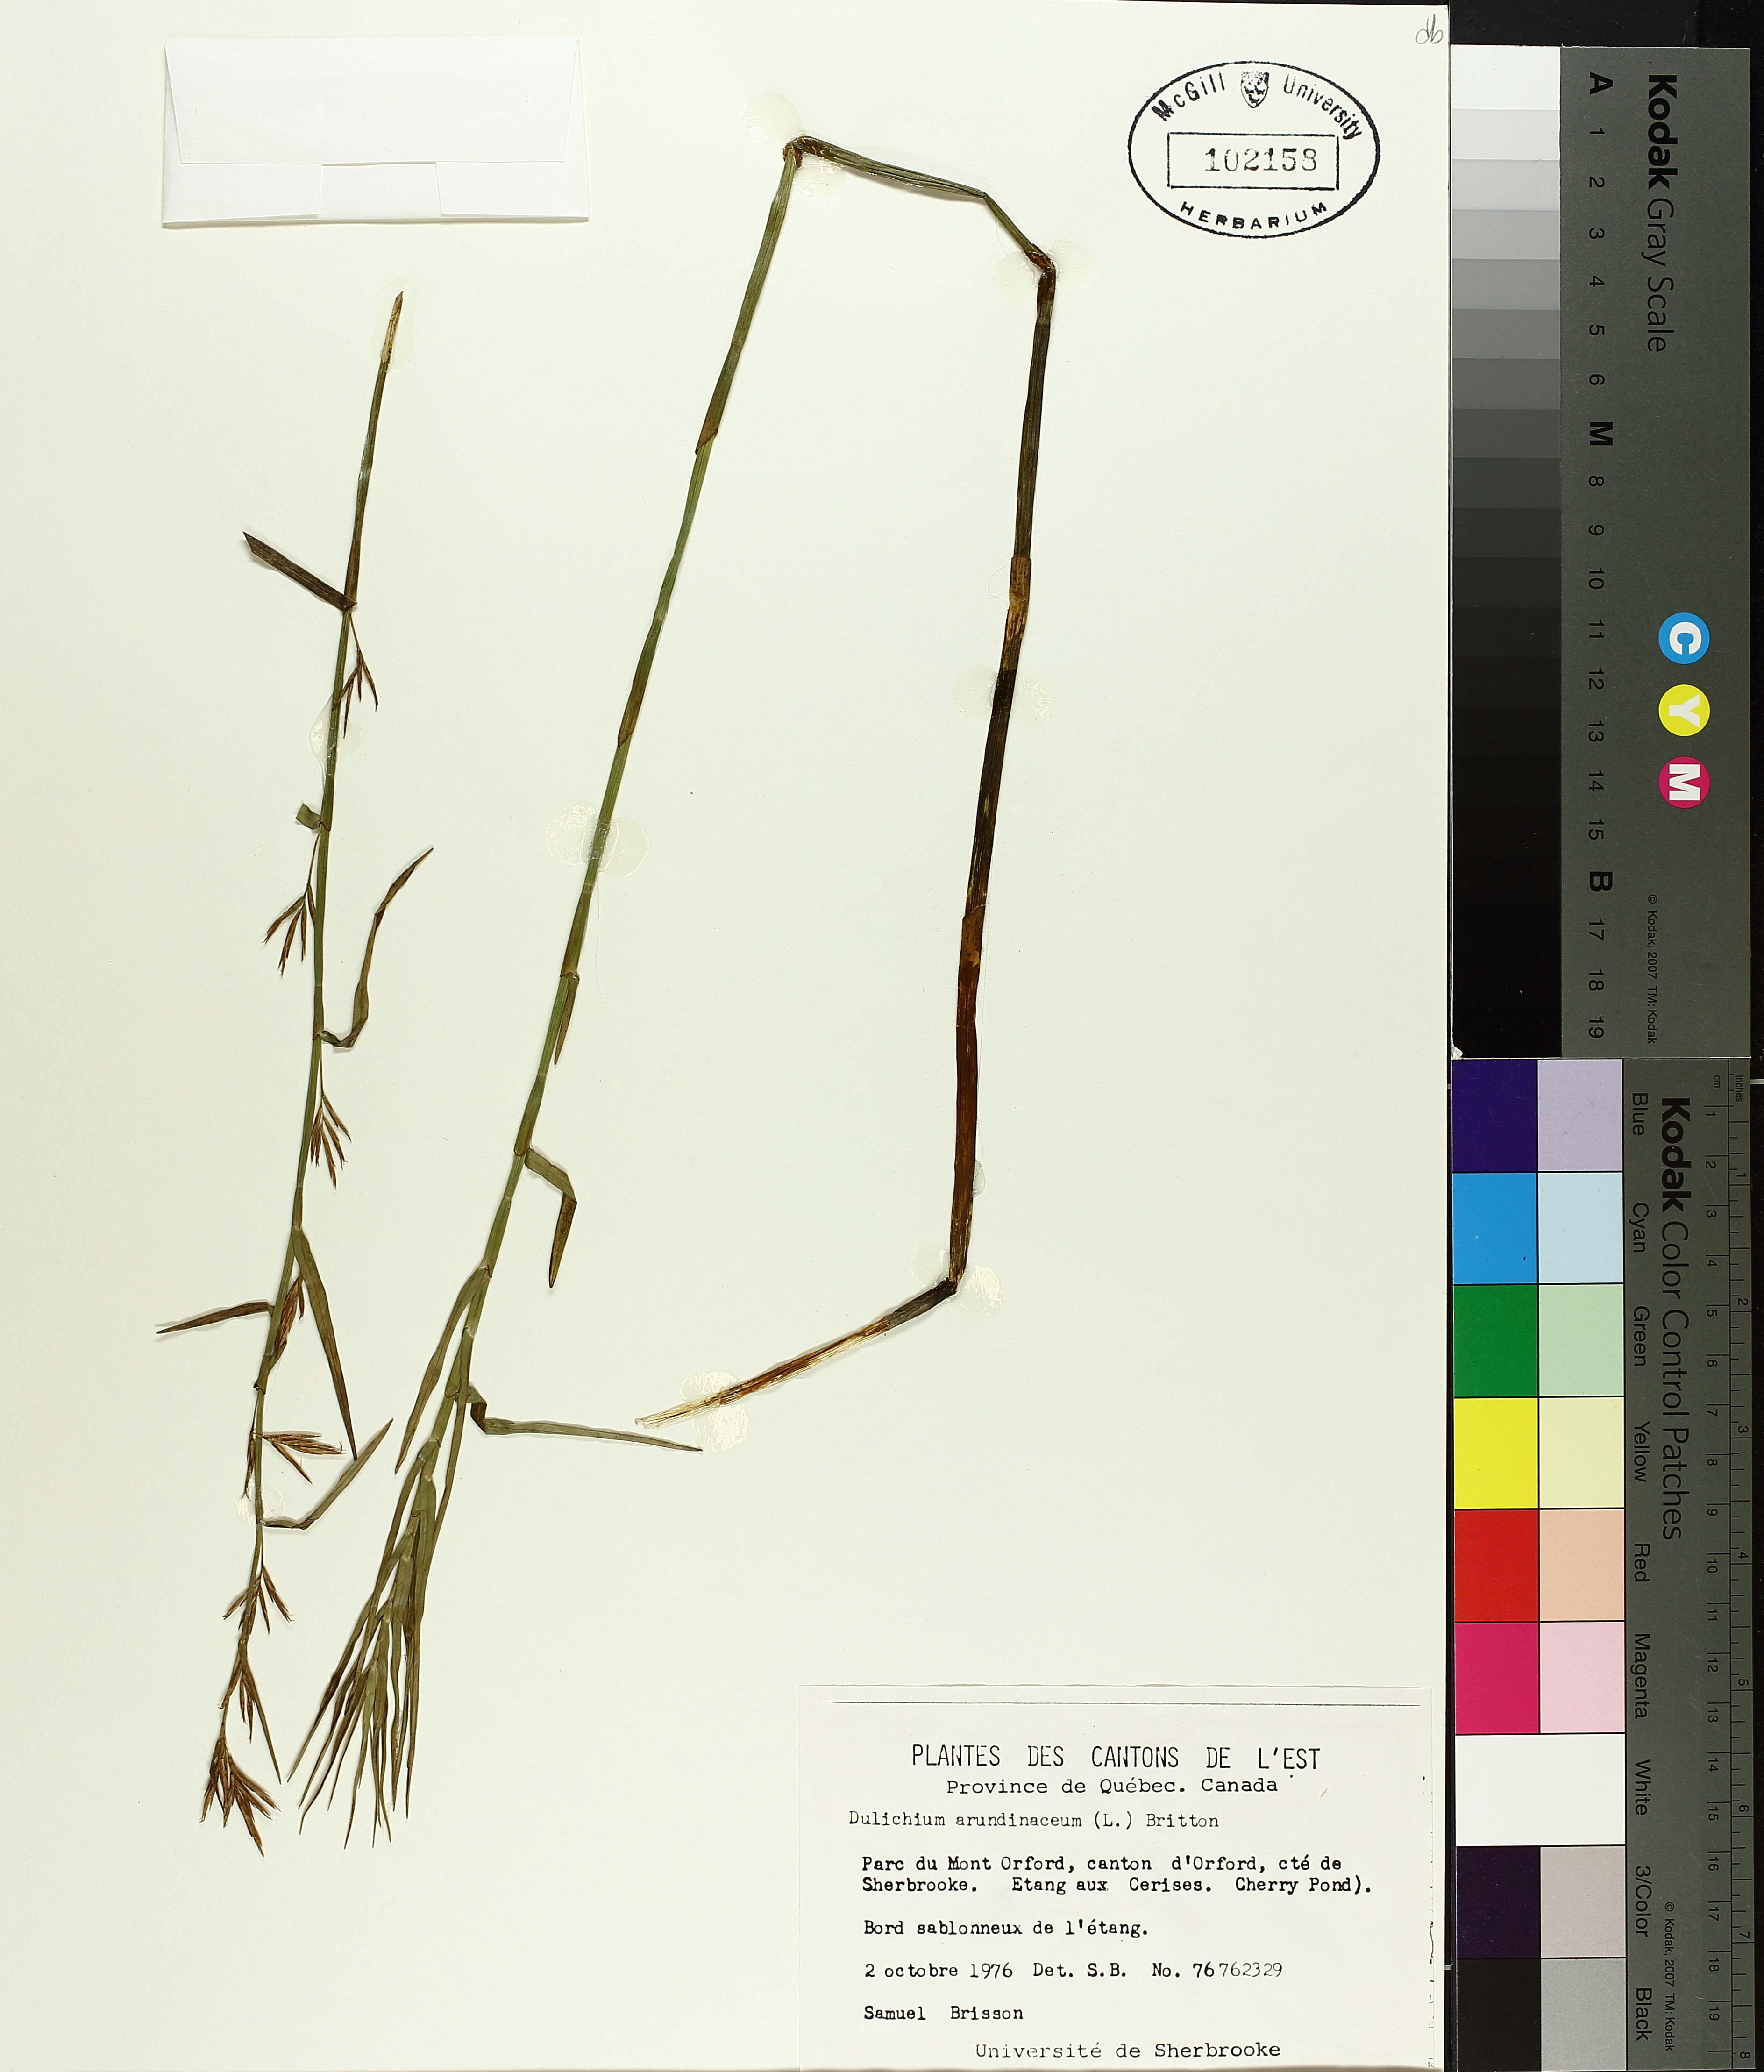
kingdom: Plantae
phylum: Tracheophyta
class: Liliopsida
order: Poales
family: Cyperaceae
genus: Dulichium
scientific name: Dulichium arundinaceum
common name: Three-way sedge
